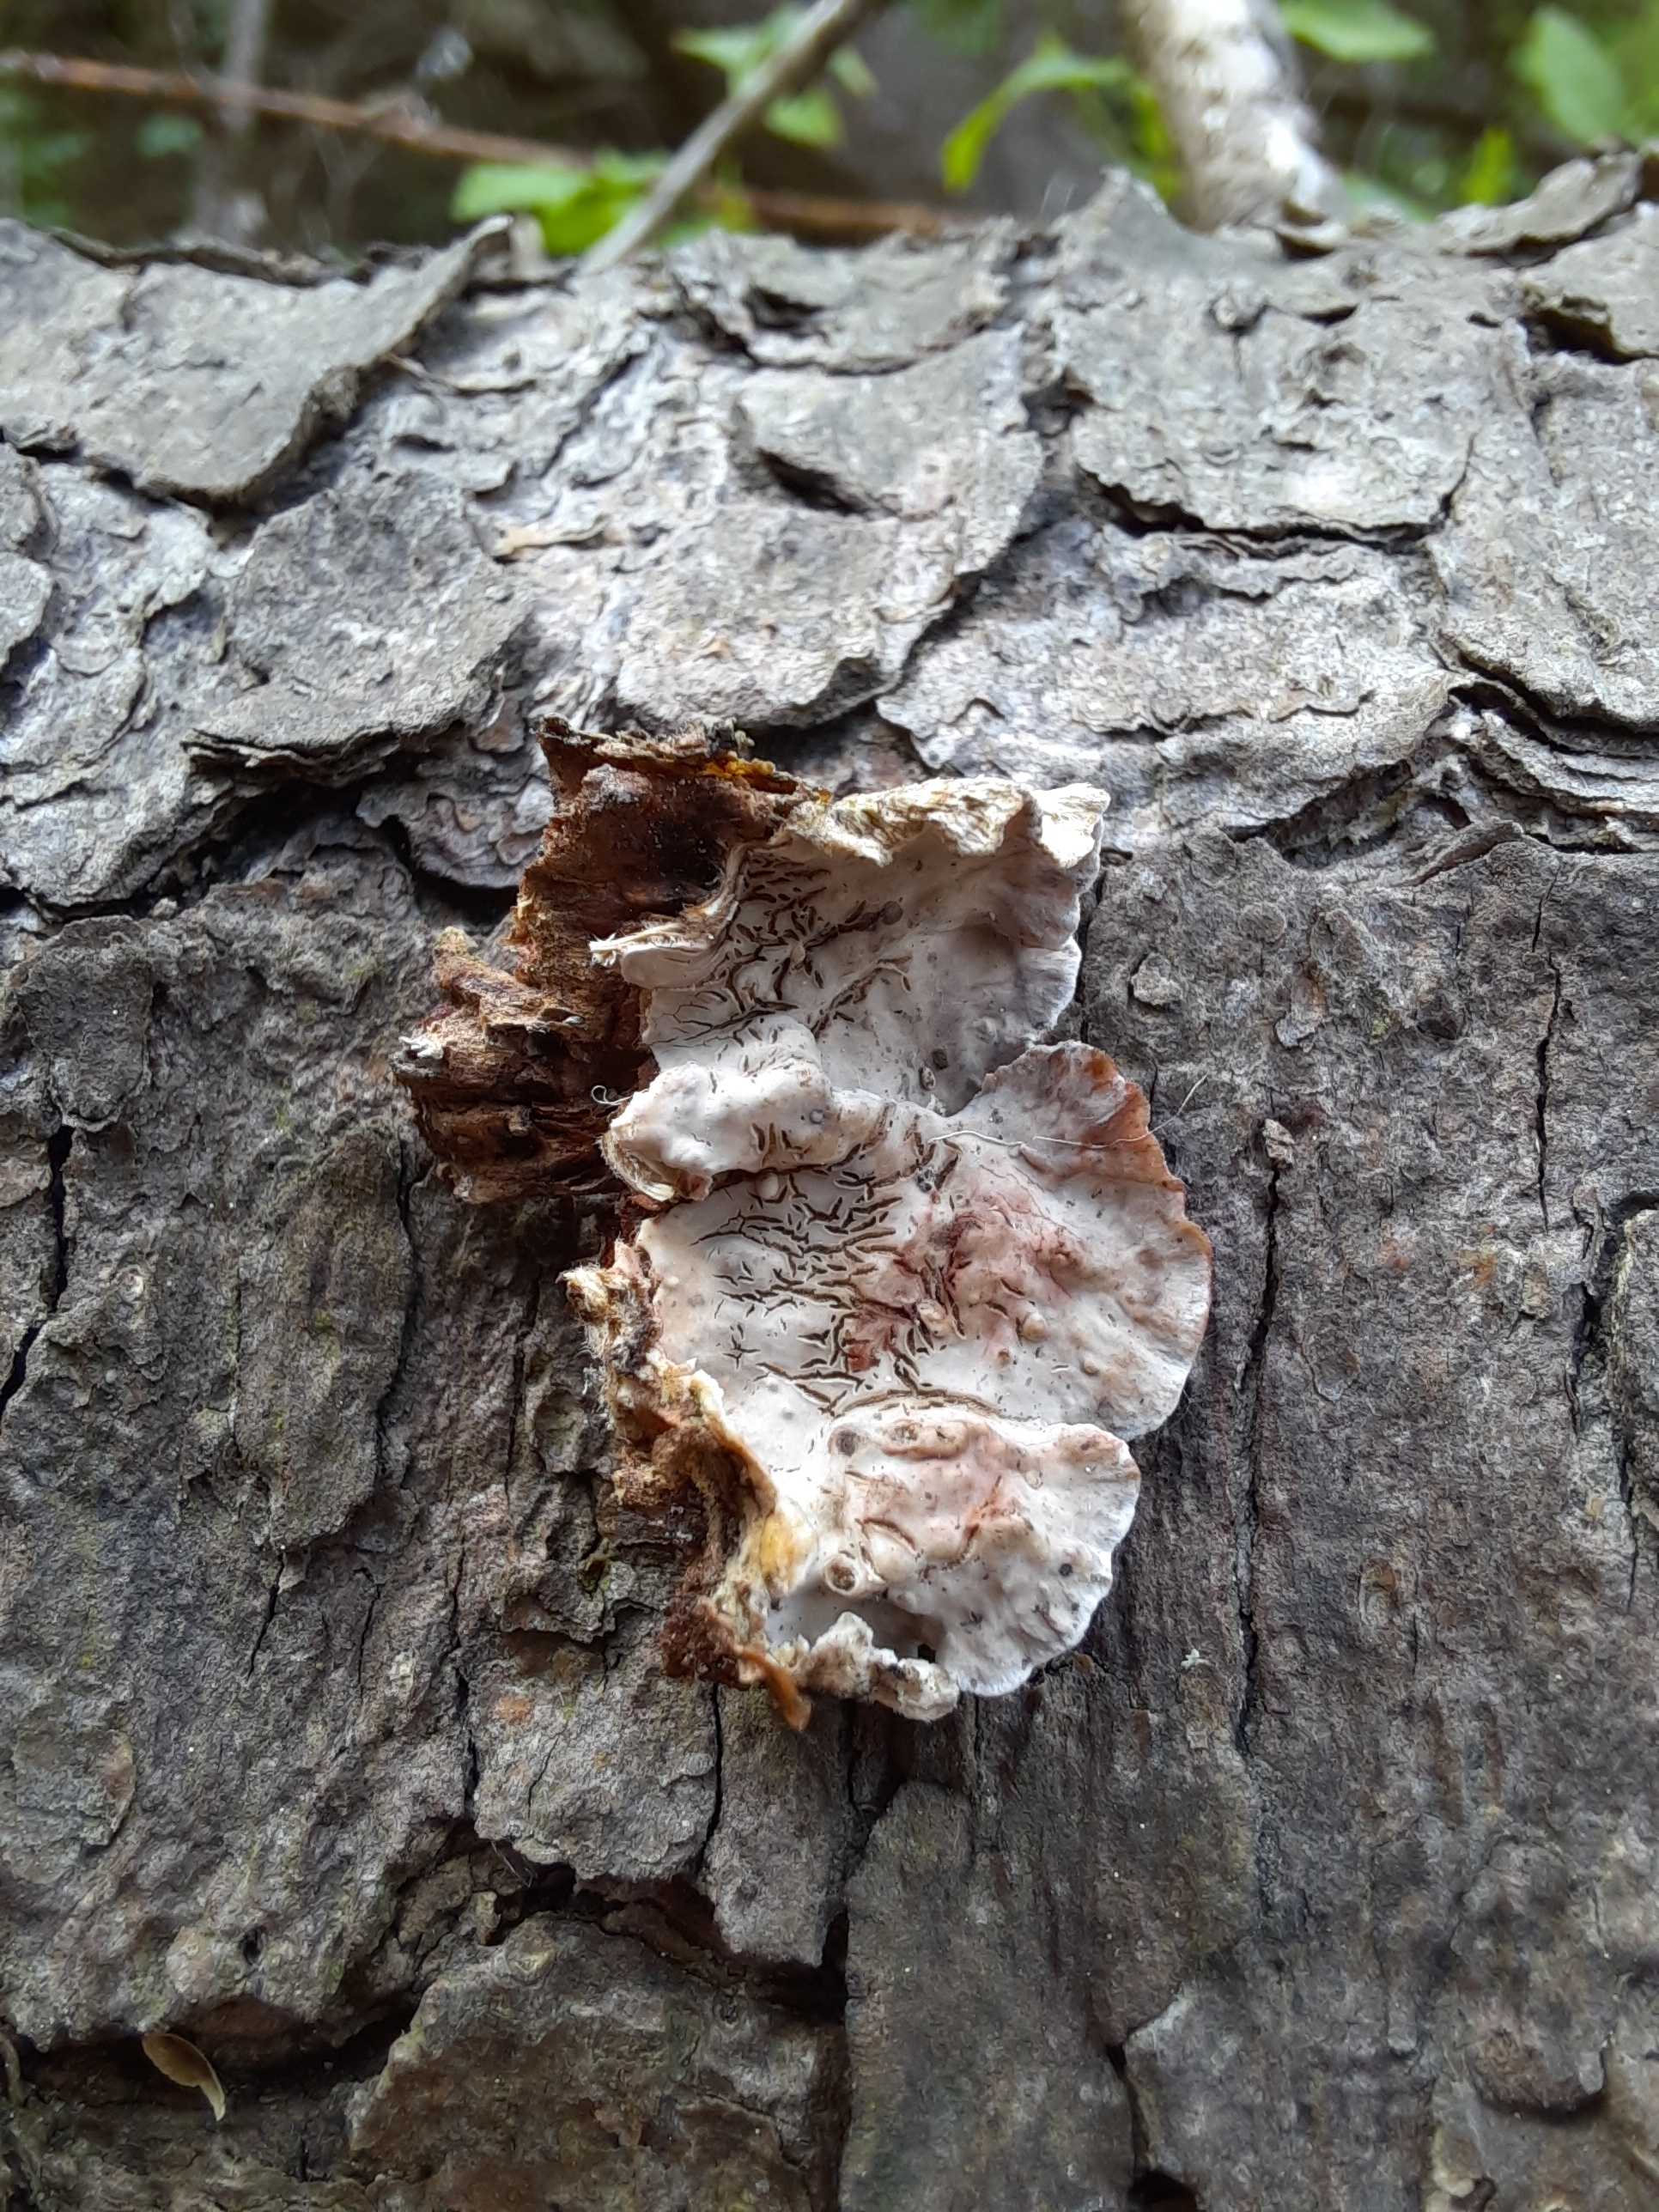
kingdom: Fungi
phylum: Basidiomycota
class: Agaricomycetes
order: Russulales
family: Stereaceae
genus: Stereum
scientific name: Stereum sanguinolentum
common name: blødende lædersvamp
